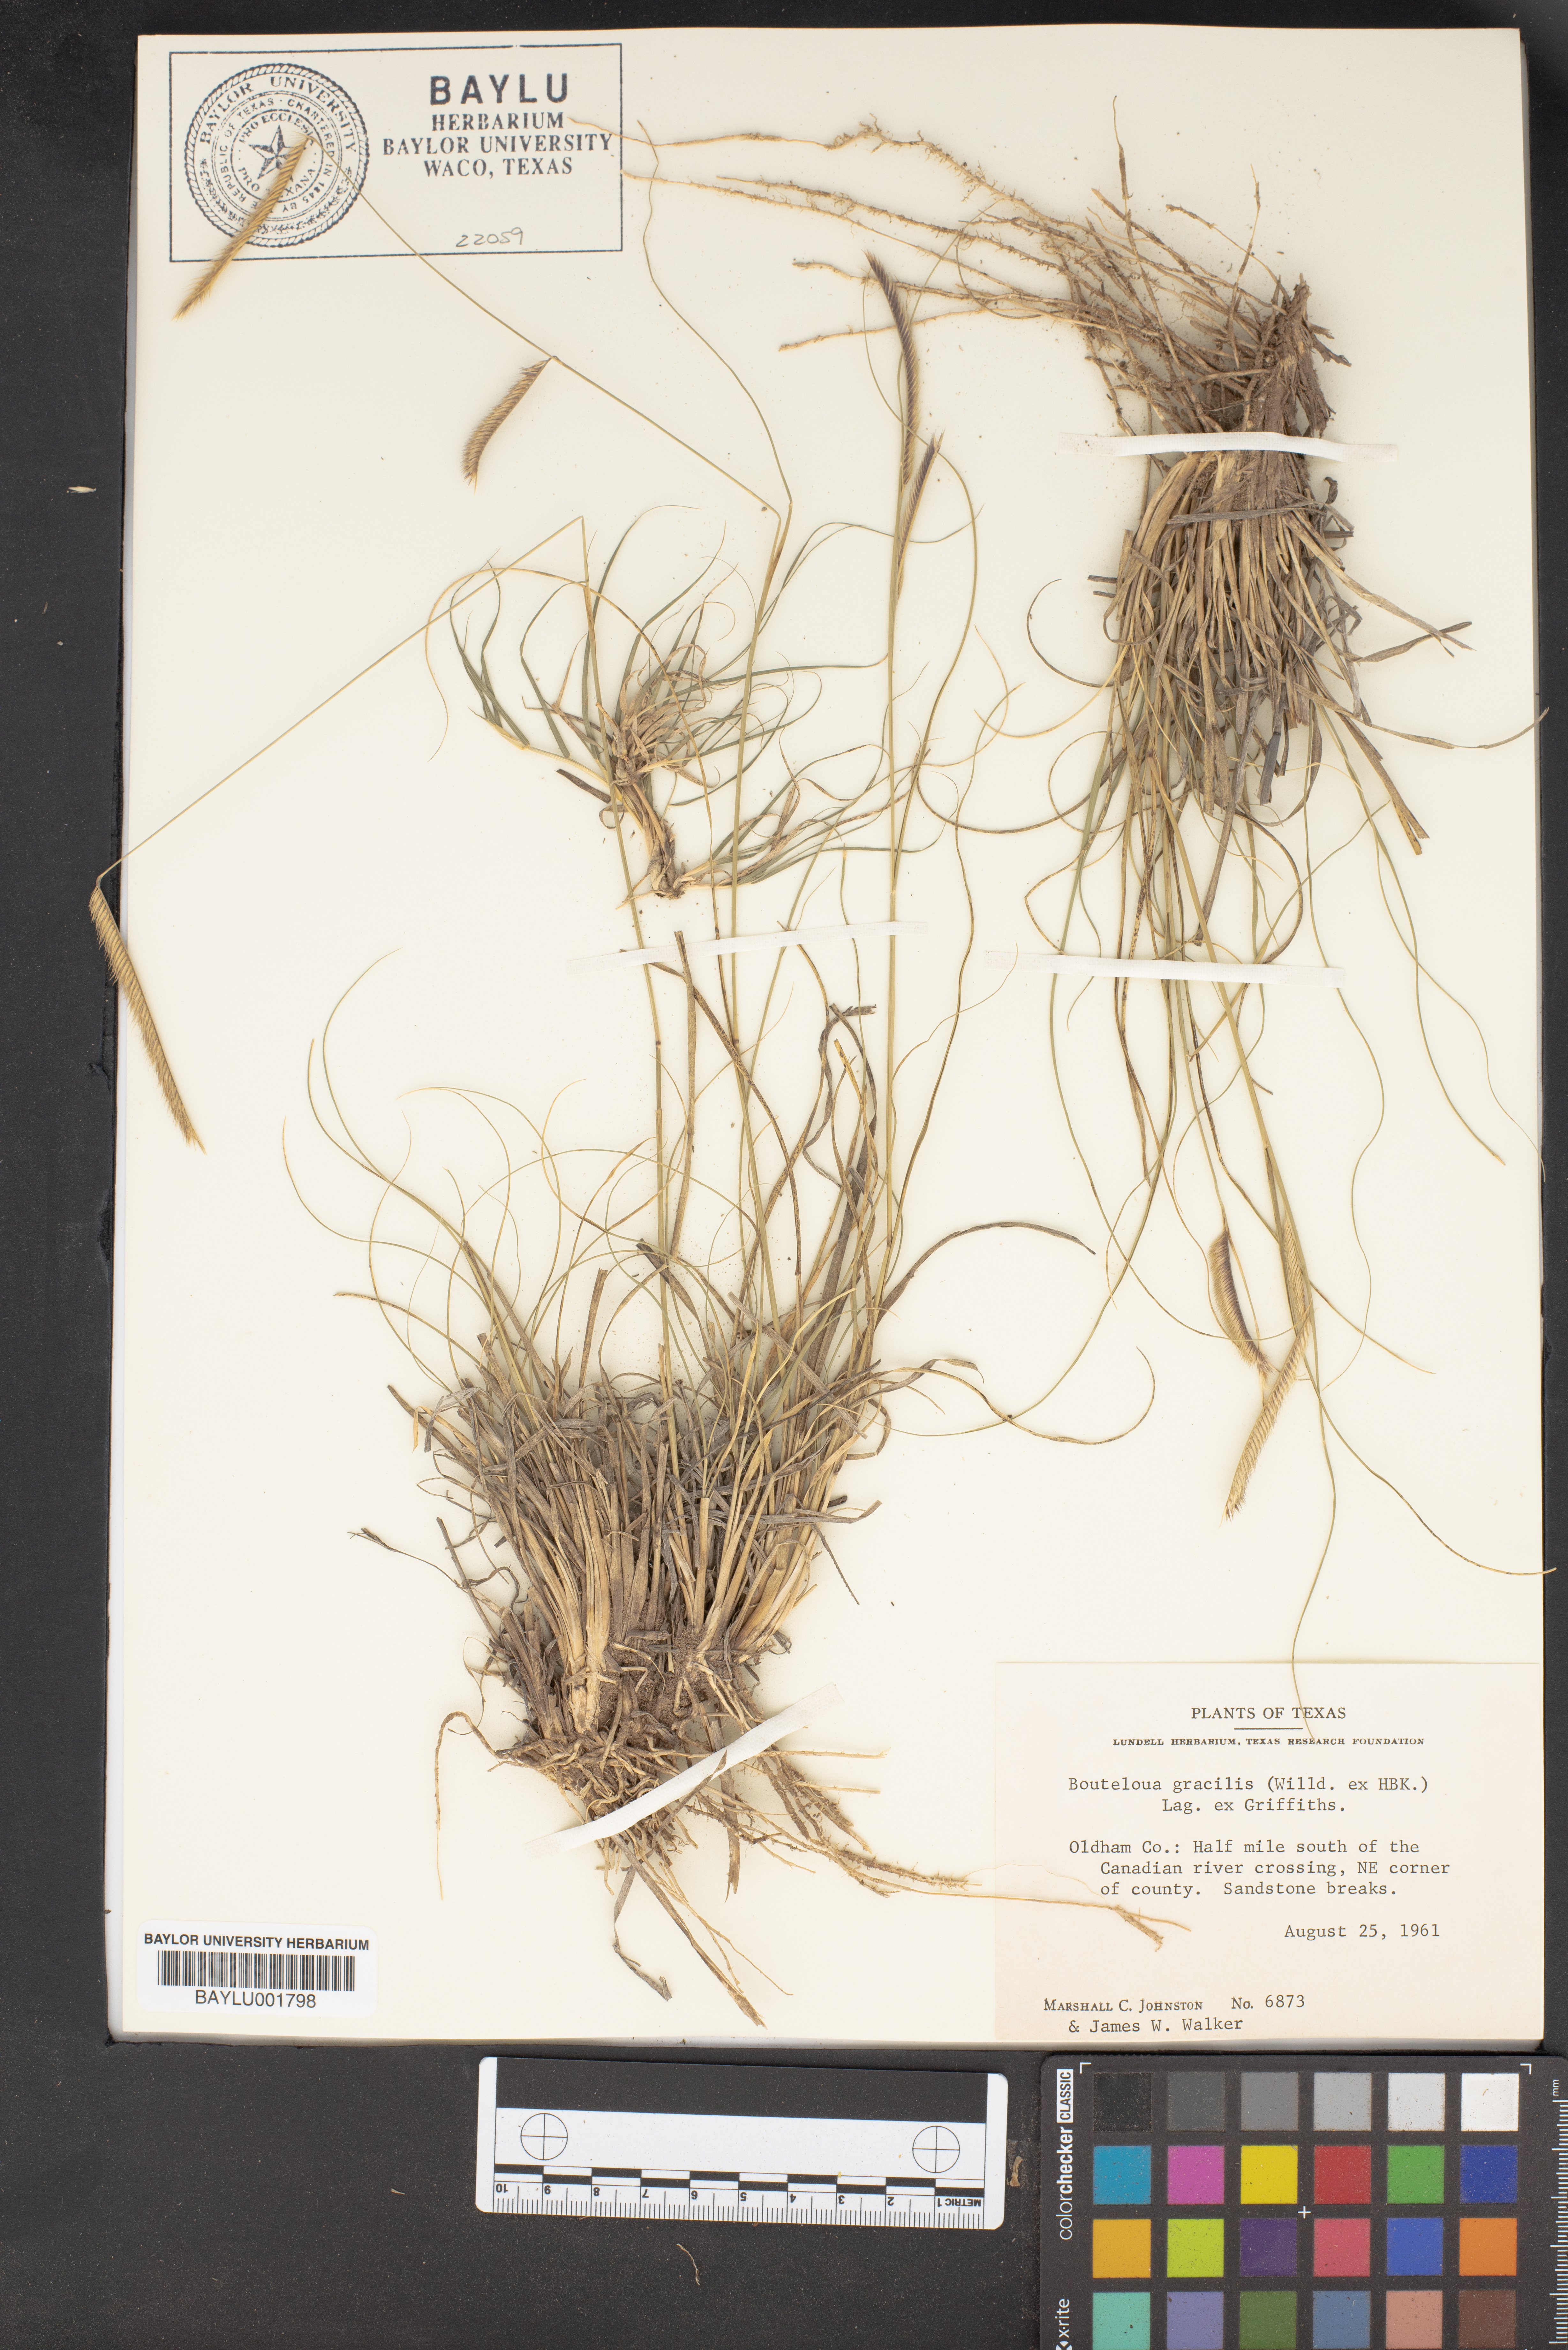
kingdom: Plantae
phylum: Tracheophyta
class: Liliopsida
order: Poales
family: Poaceae
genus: Bouteloua
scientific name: Bouteloua gracilis
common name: Blue grama
